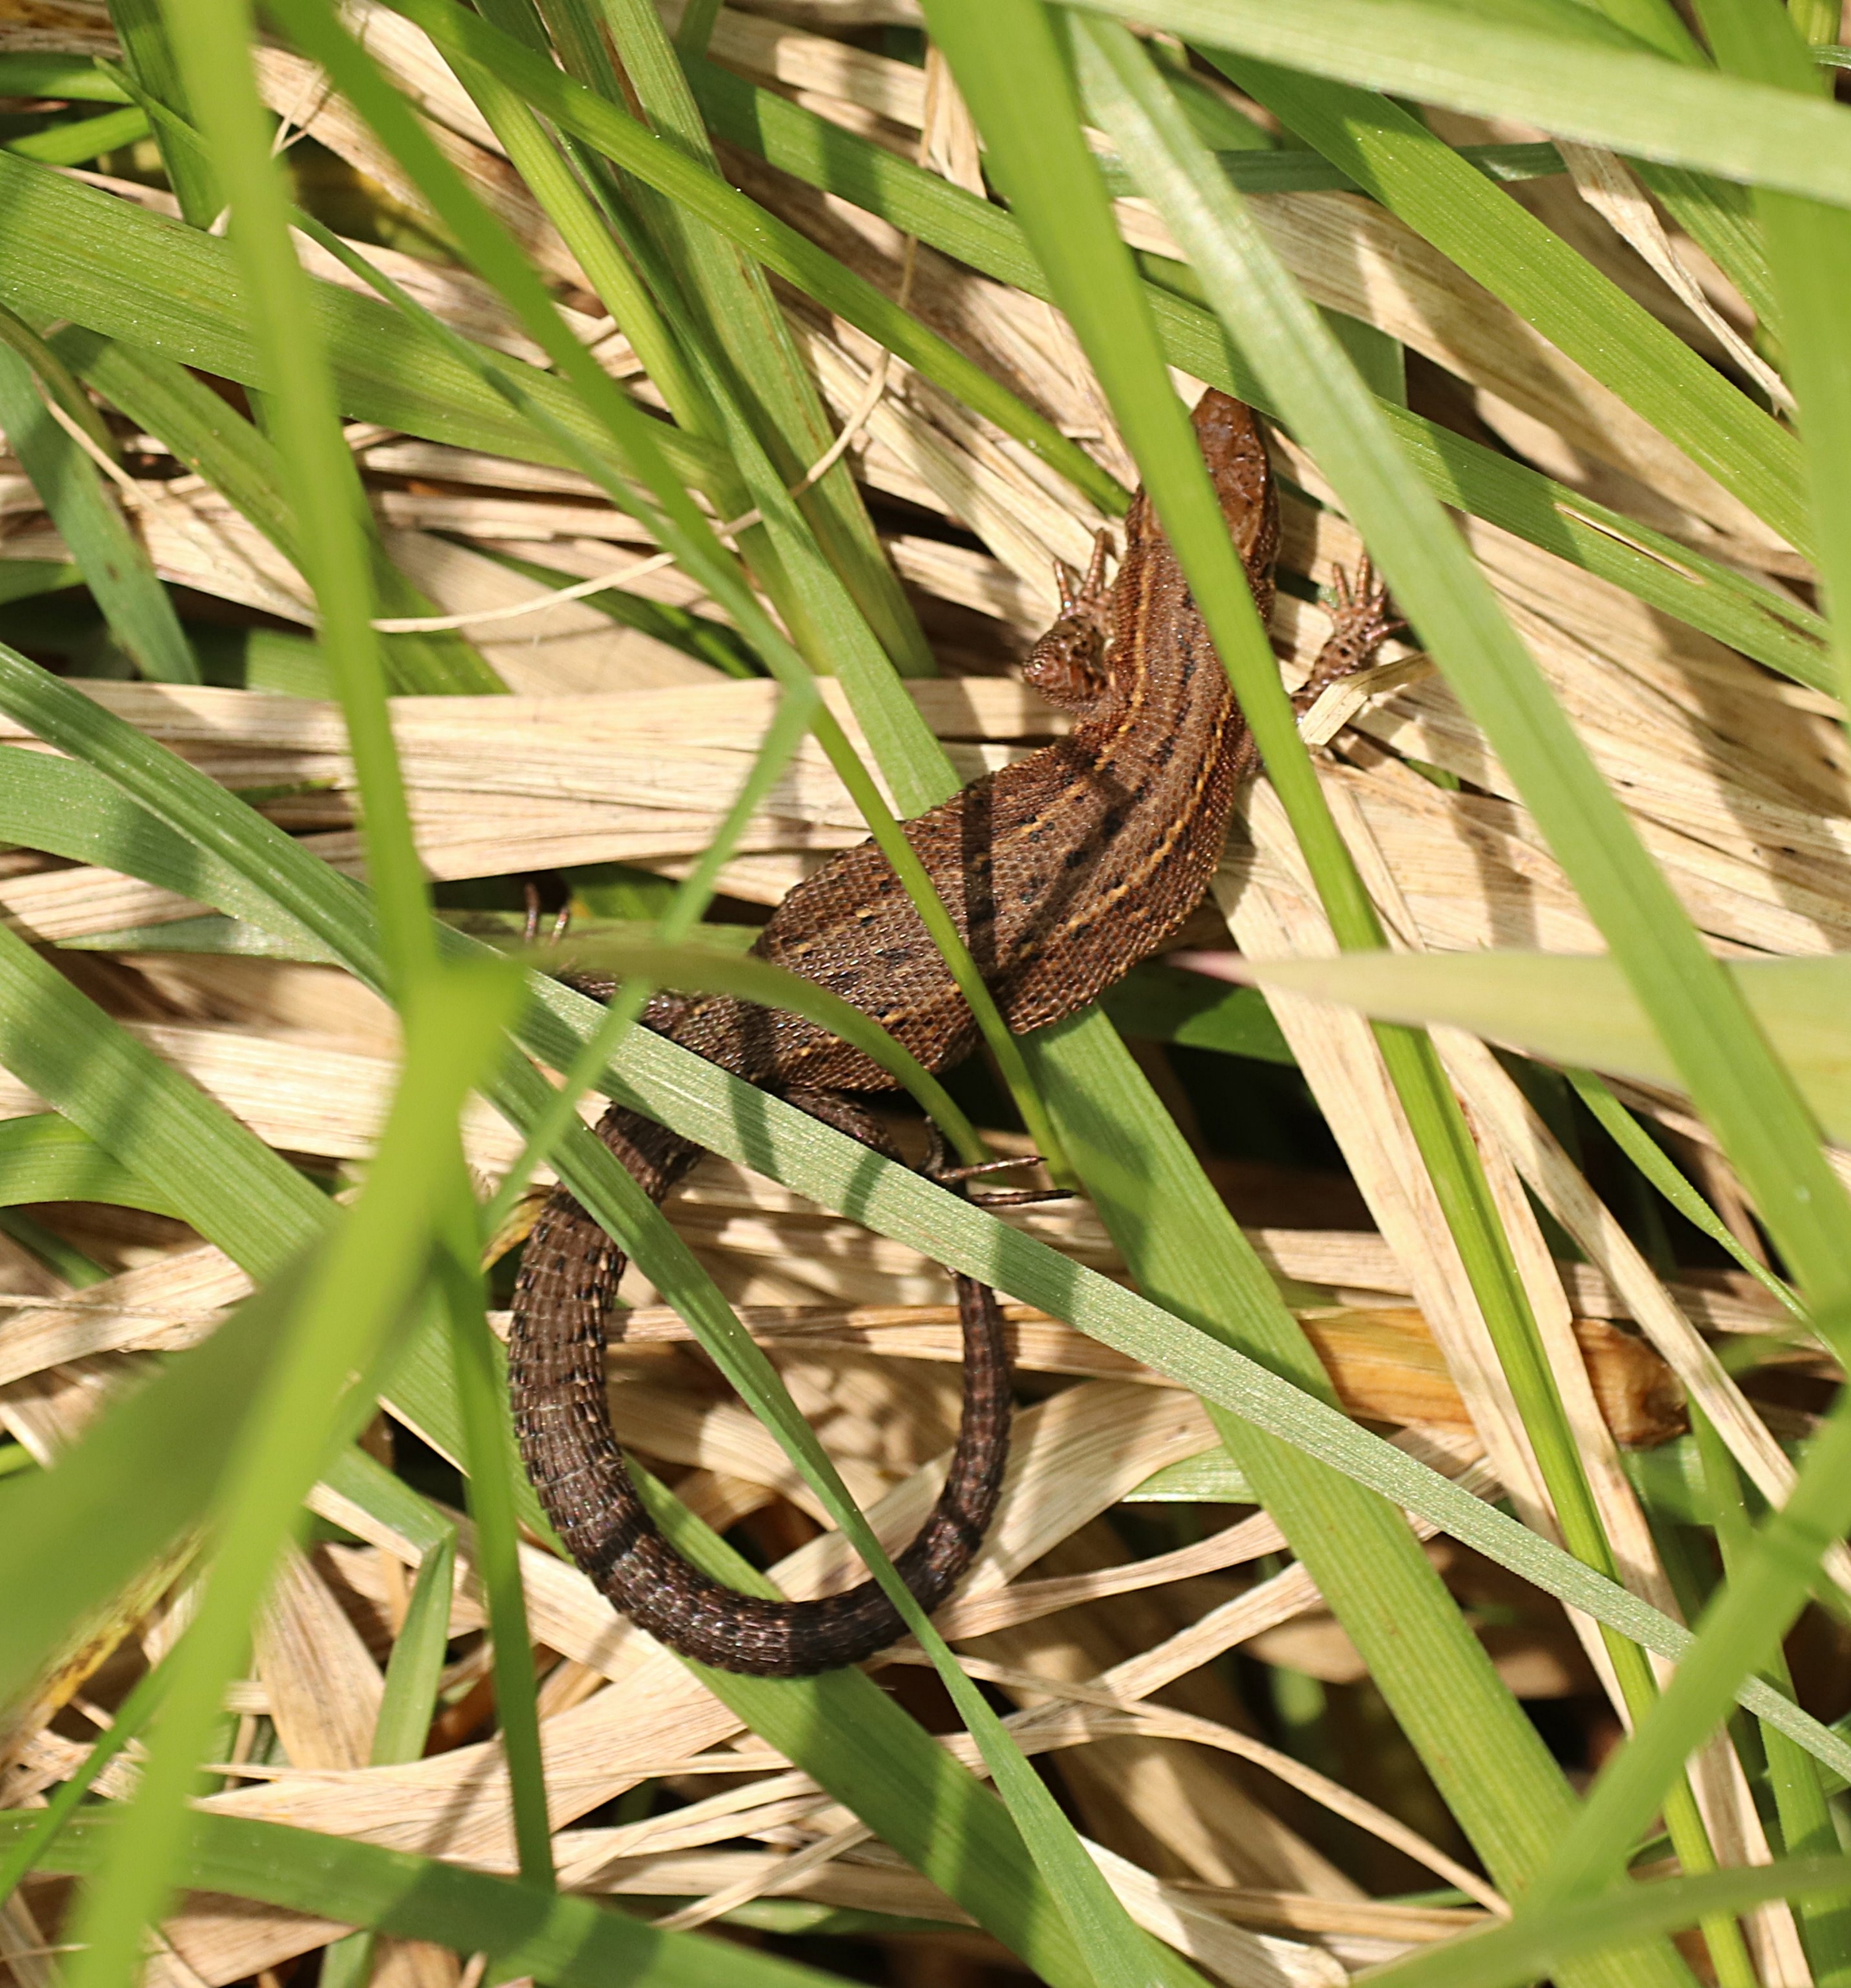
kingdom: Animalia
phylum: Chordata
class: Squamata
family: Lacertidae
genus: Zootoca
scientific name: Zootoca vivipara
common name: Skovfirben
